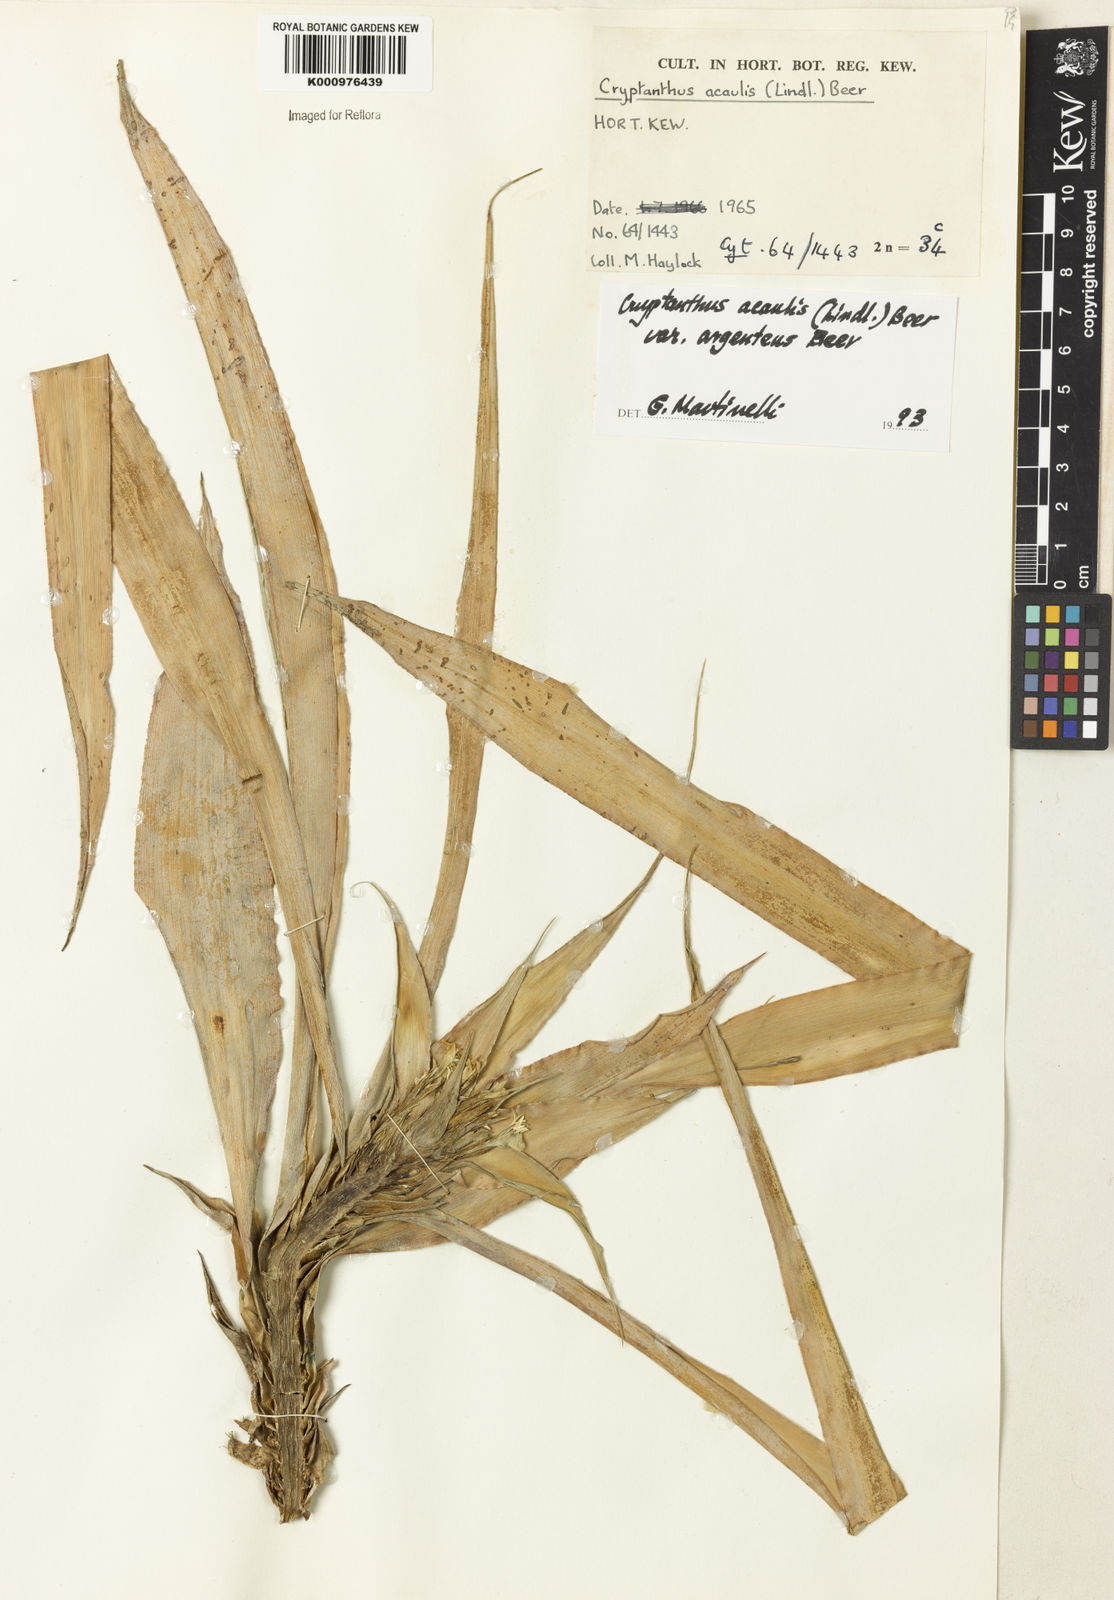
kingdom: Plantae
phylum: Tracheophyta
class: Liliopsida
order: Poales
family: Bromeliaceae
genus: Cryptanthus
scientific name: Cryptanthus acaulis
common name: Starfishplant
